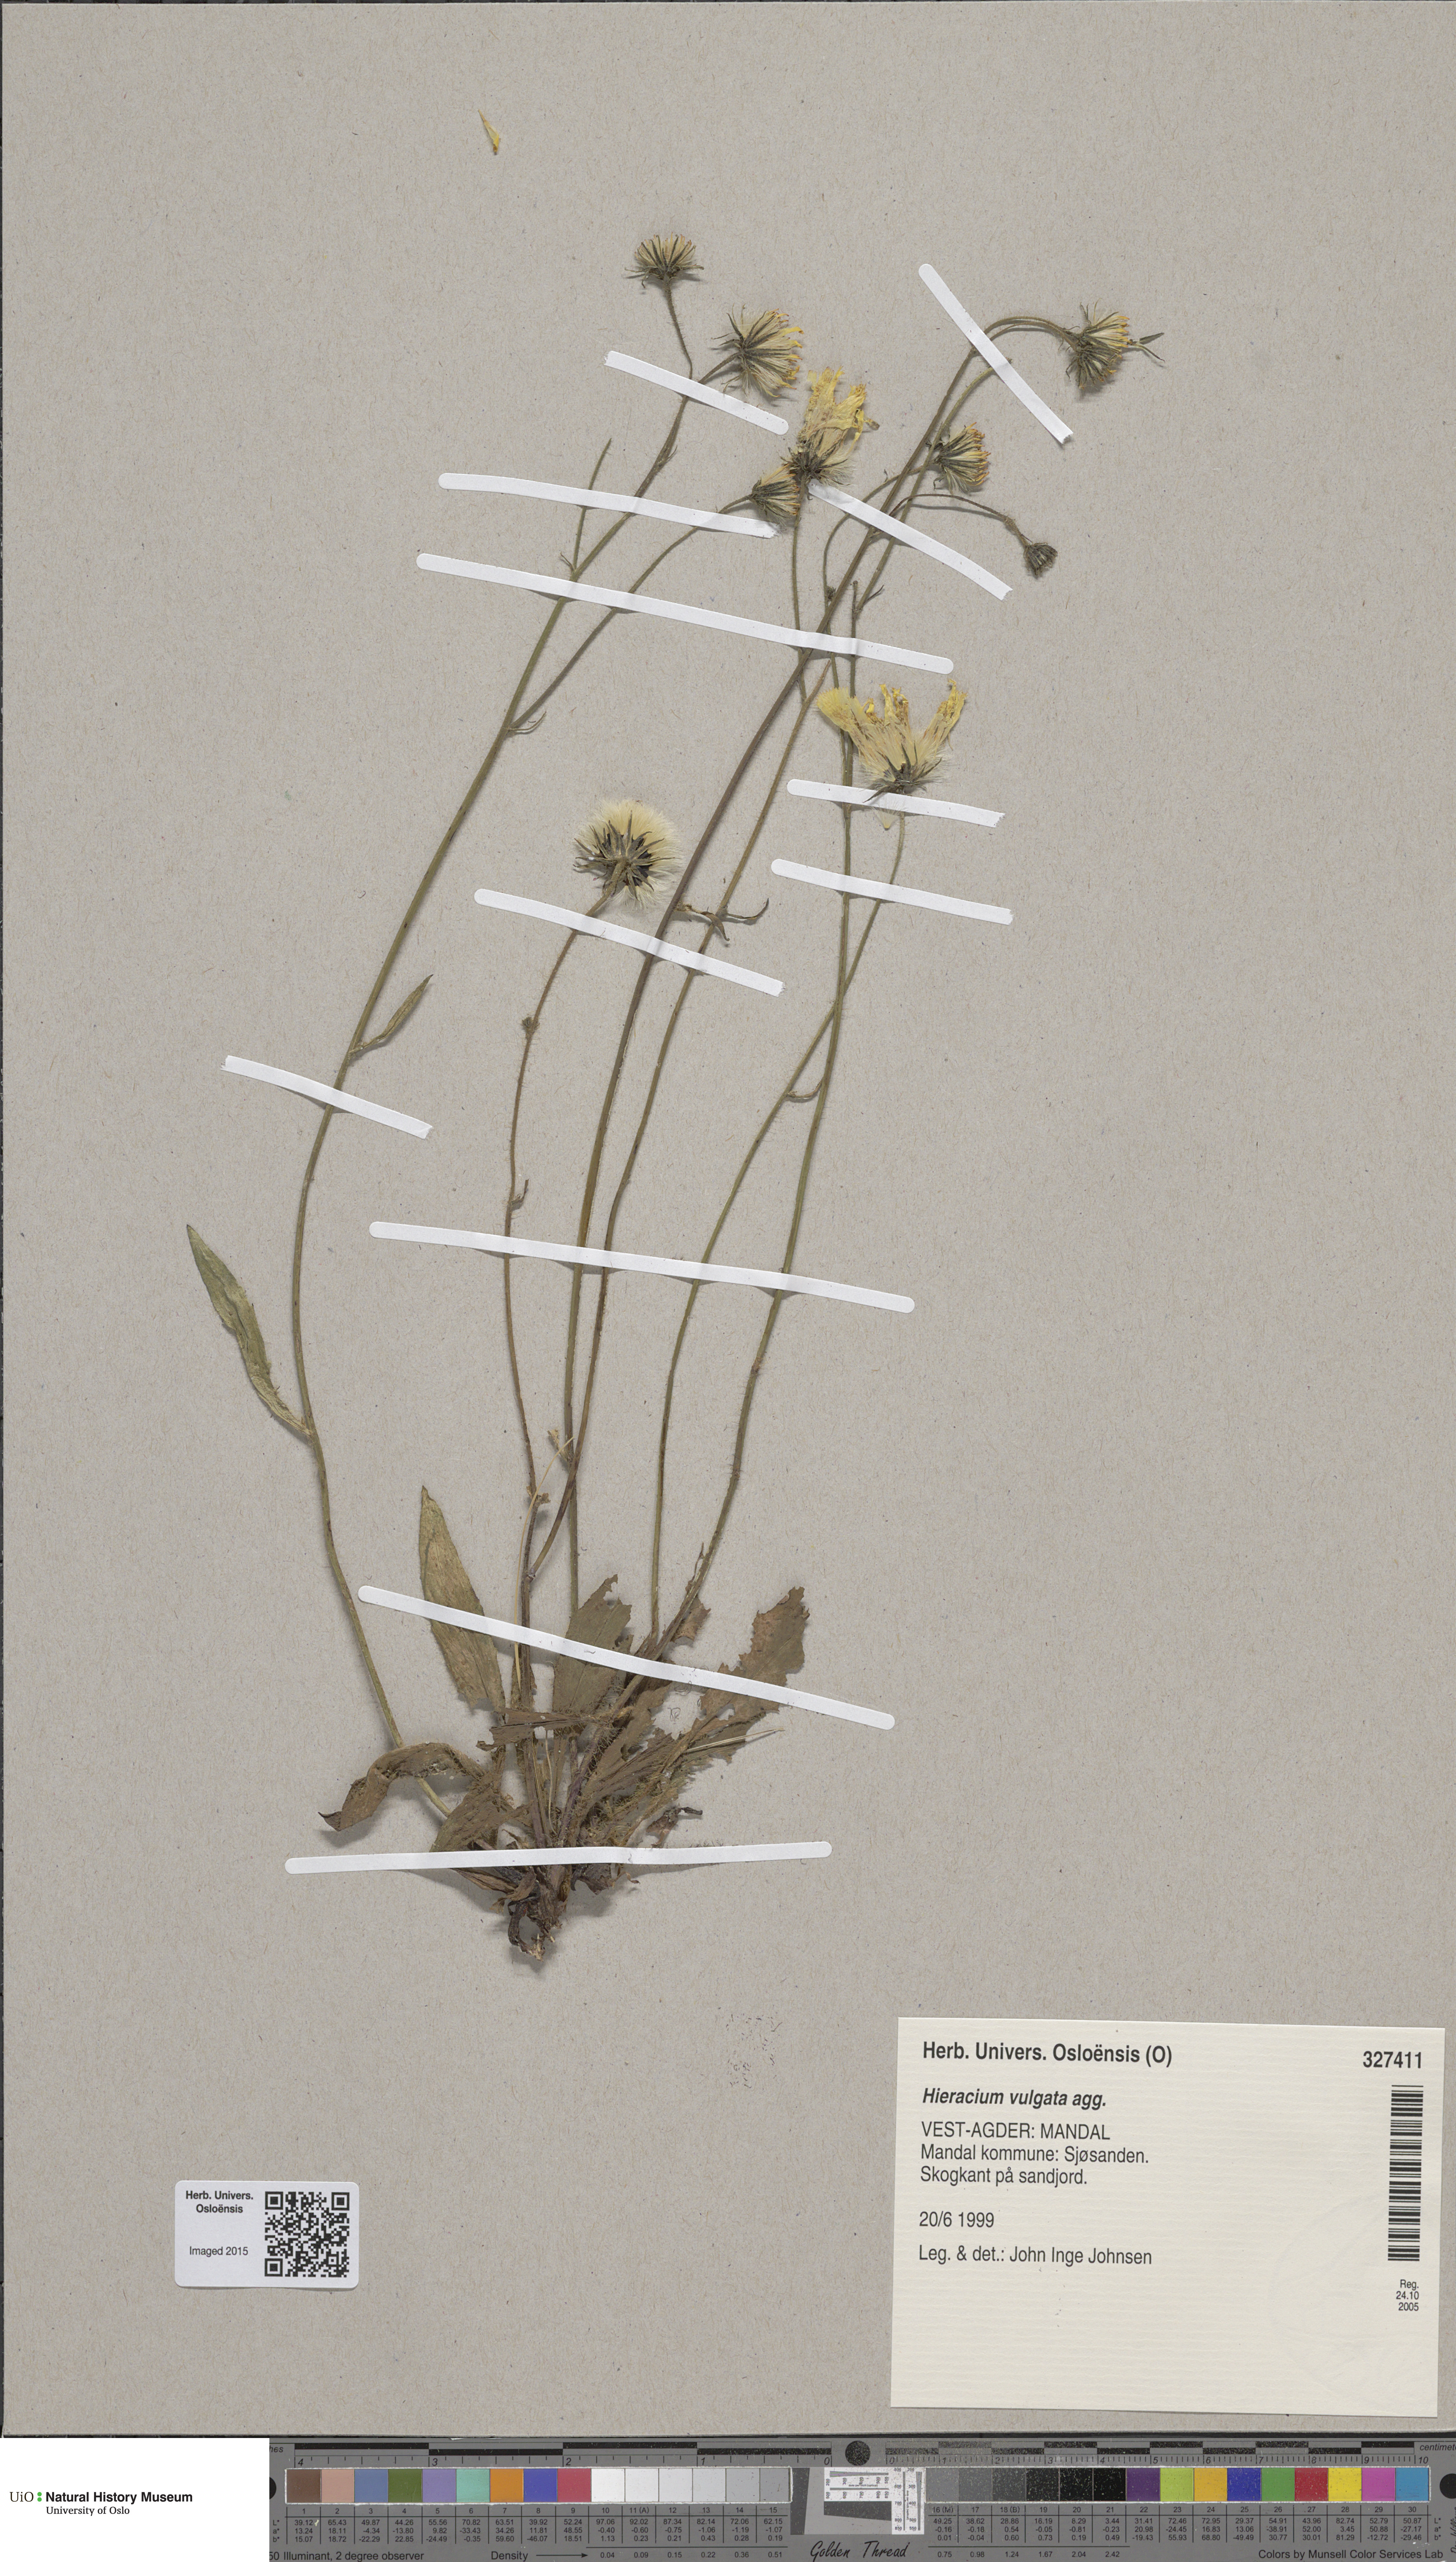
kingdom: Plantae
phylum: Tracheophyta
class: Magnoliopsida
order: Asterales
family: Asteraceae
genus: Hieracium
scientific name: Hieracium vulgatum
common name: Common hawkweed
